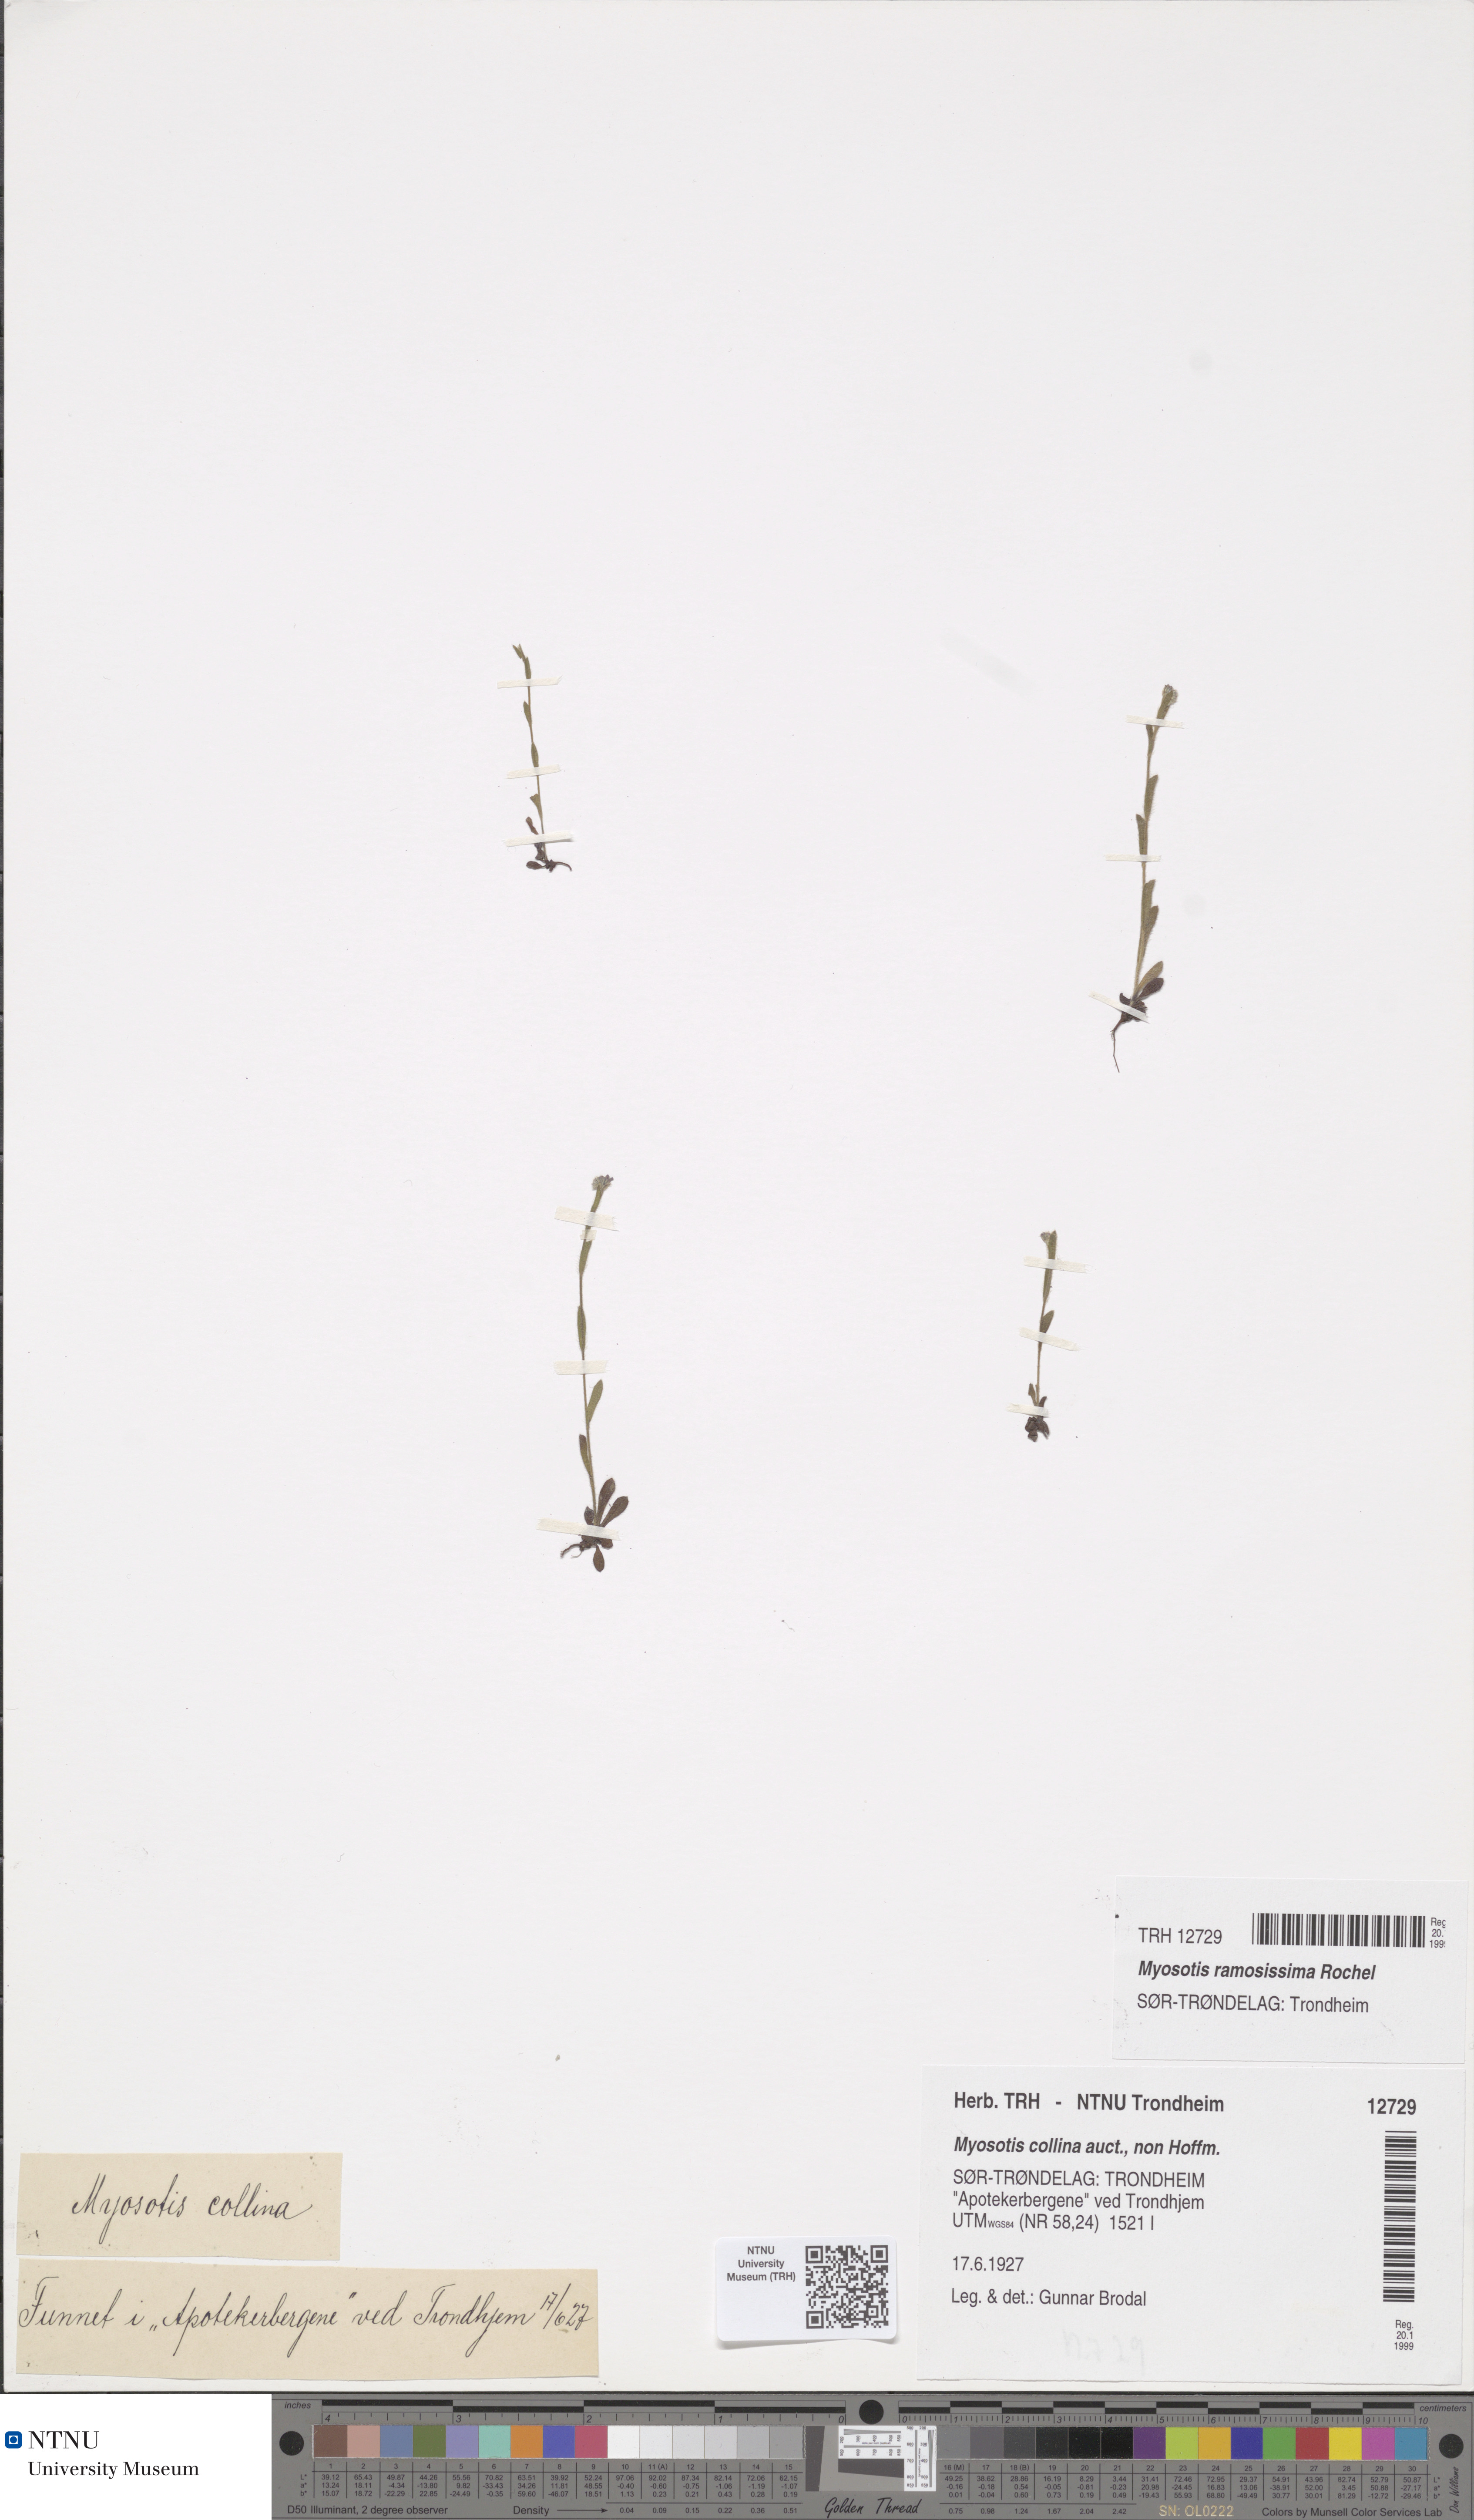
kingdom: Plantae
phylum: Tracheophyta
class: Magnoliopsida
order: Boraginales
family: Boraginaceae
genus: Myosotis
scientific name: Myosotis ramosissima
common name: Early forget-me-not
